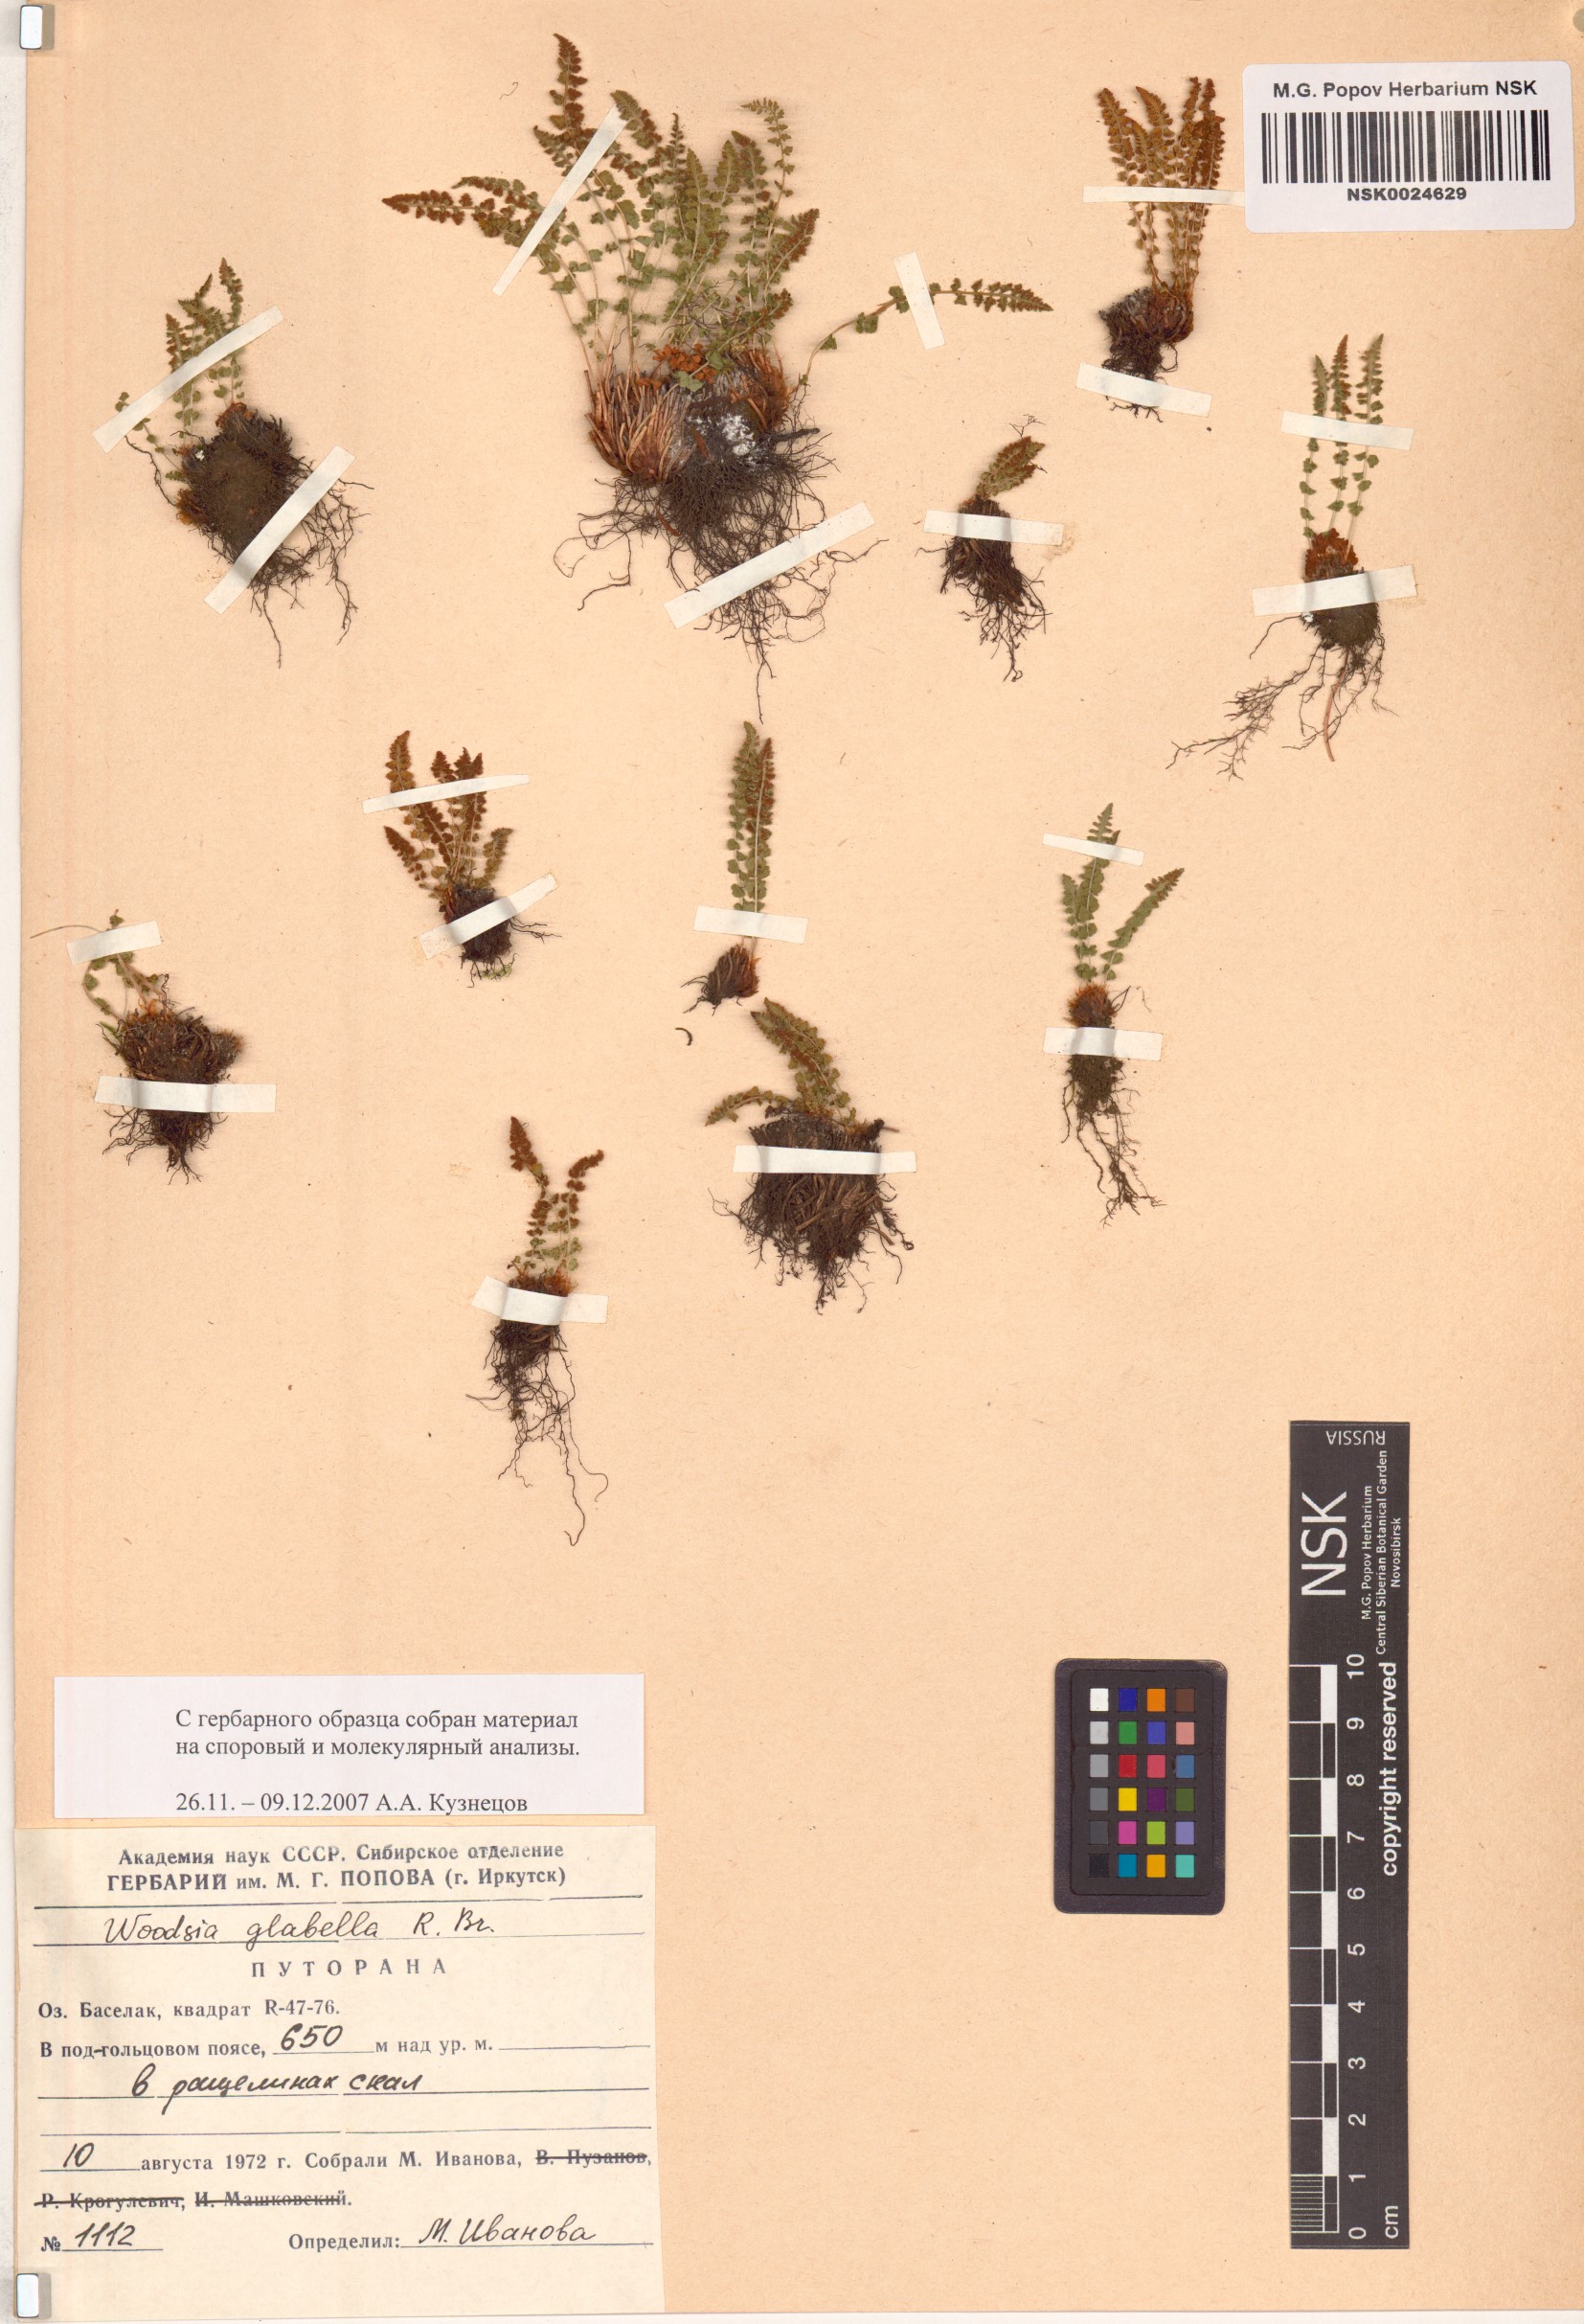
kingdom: Plantae
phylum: Tracheophyta
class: Polypodiopsida
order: Polypodiales
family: Woodsiaceae
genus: Woodsia
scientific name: Woodsia glabella
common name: Smooth woodsia
